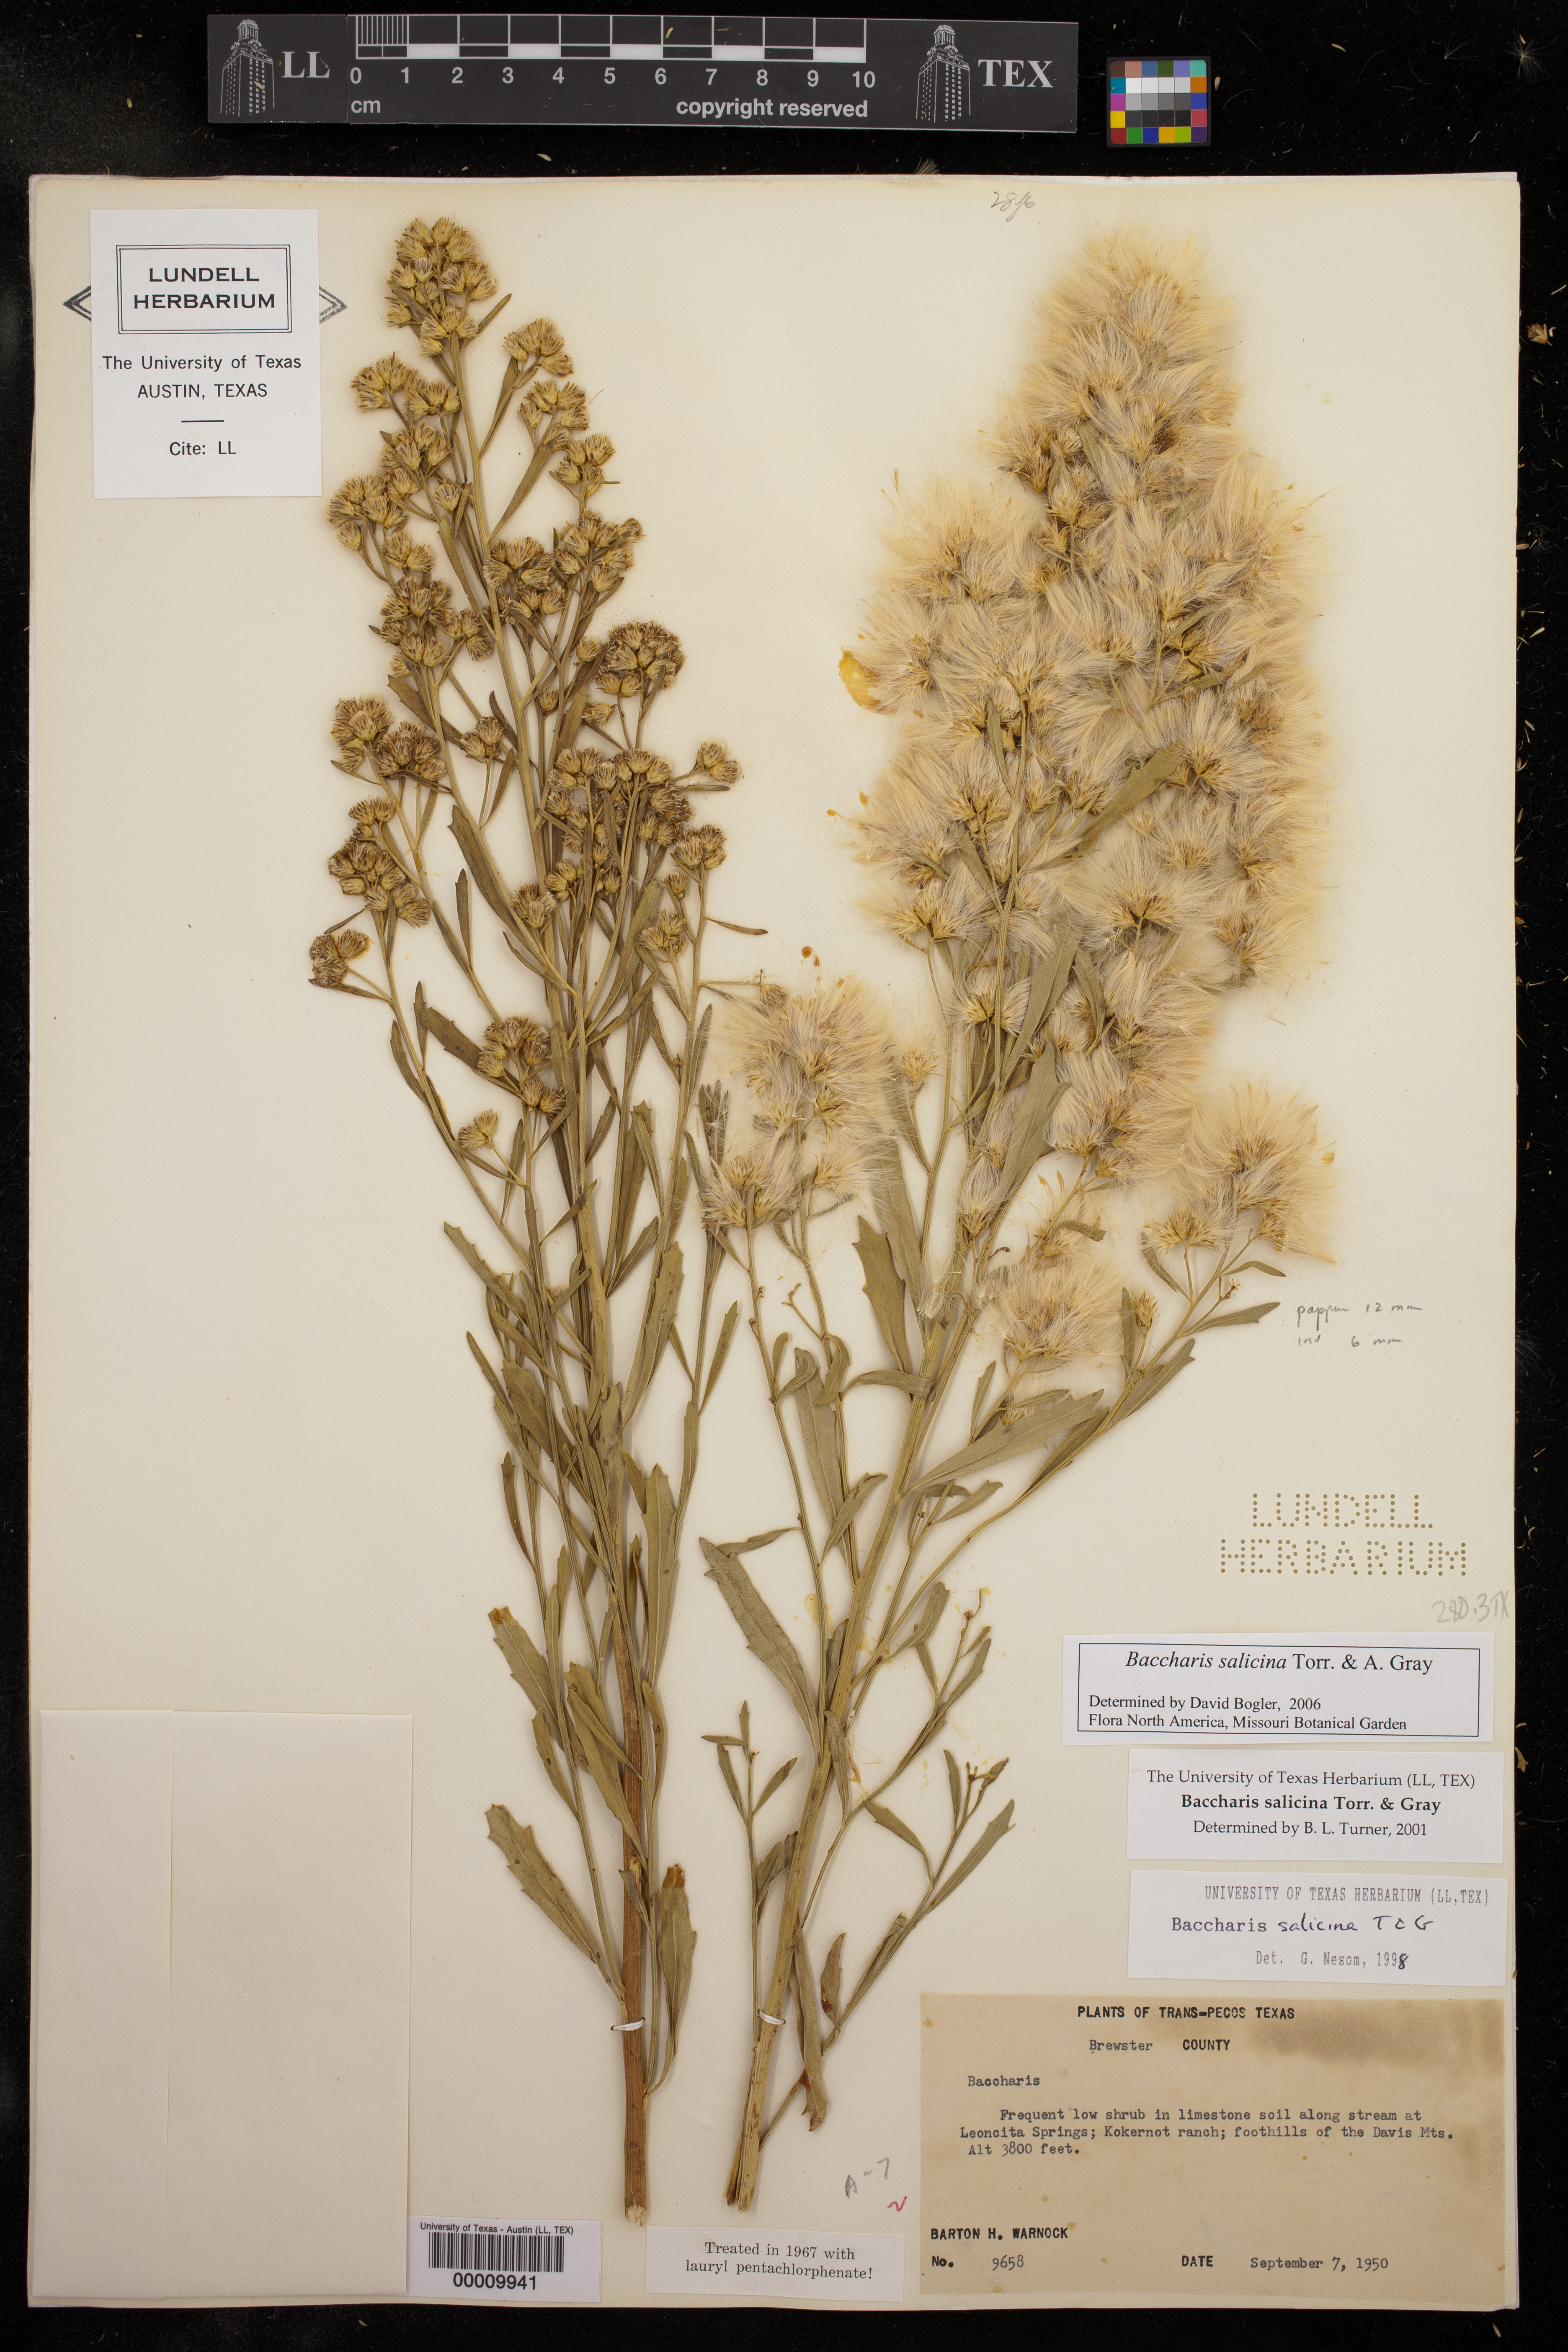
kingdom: Plantae
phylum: Tracheophyta
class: Magnoliopsida
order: Asterales
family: Asteraceae
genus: Baccharis
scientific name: Baccharis salicina
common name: Willow baccharis
